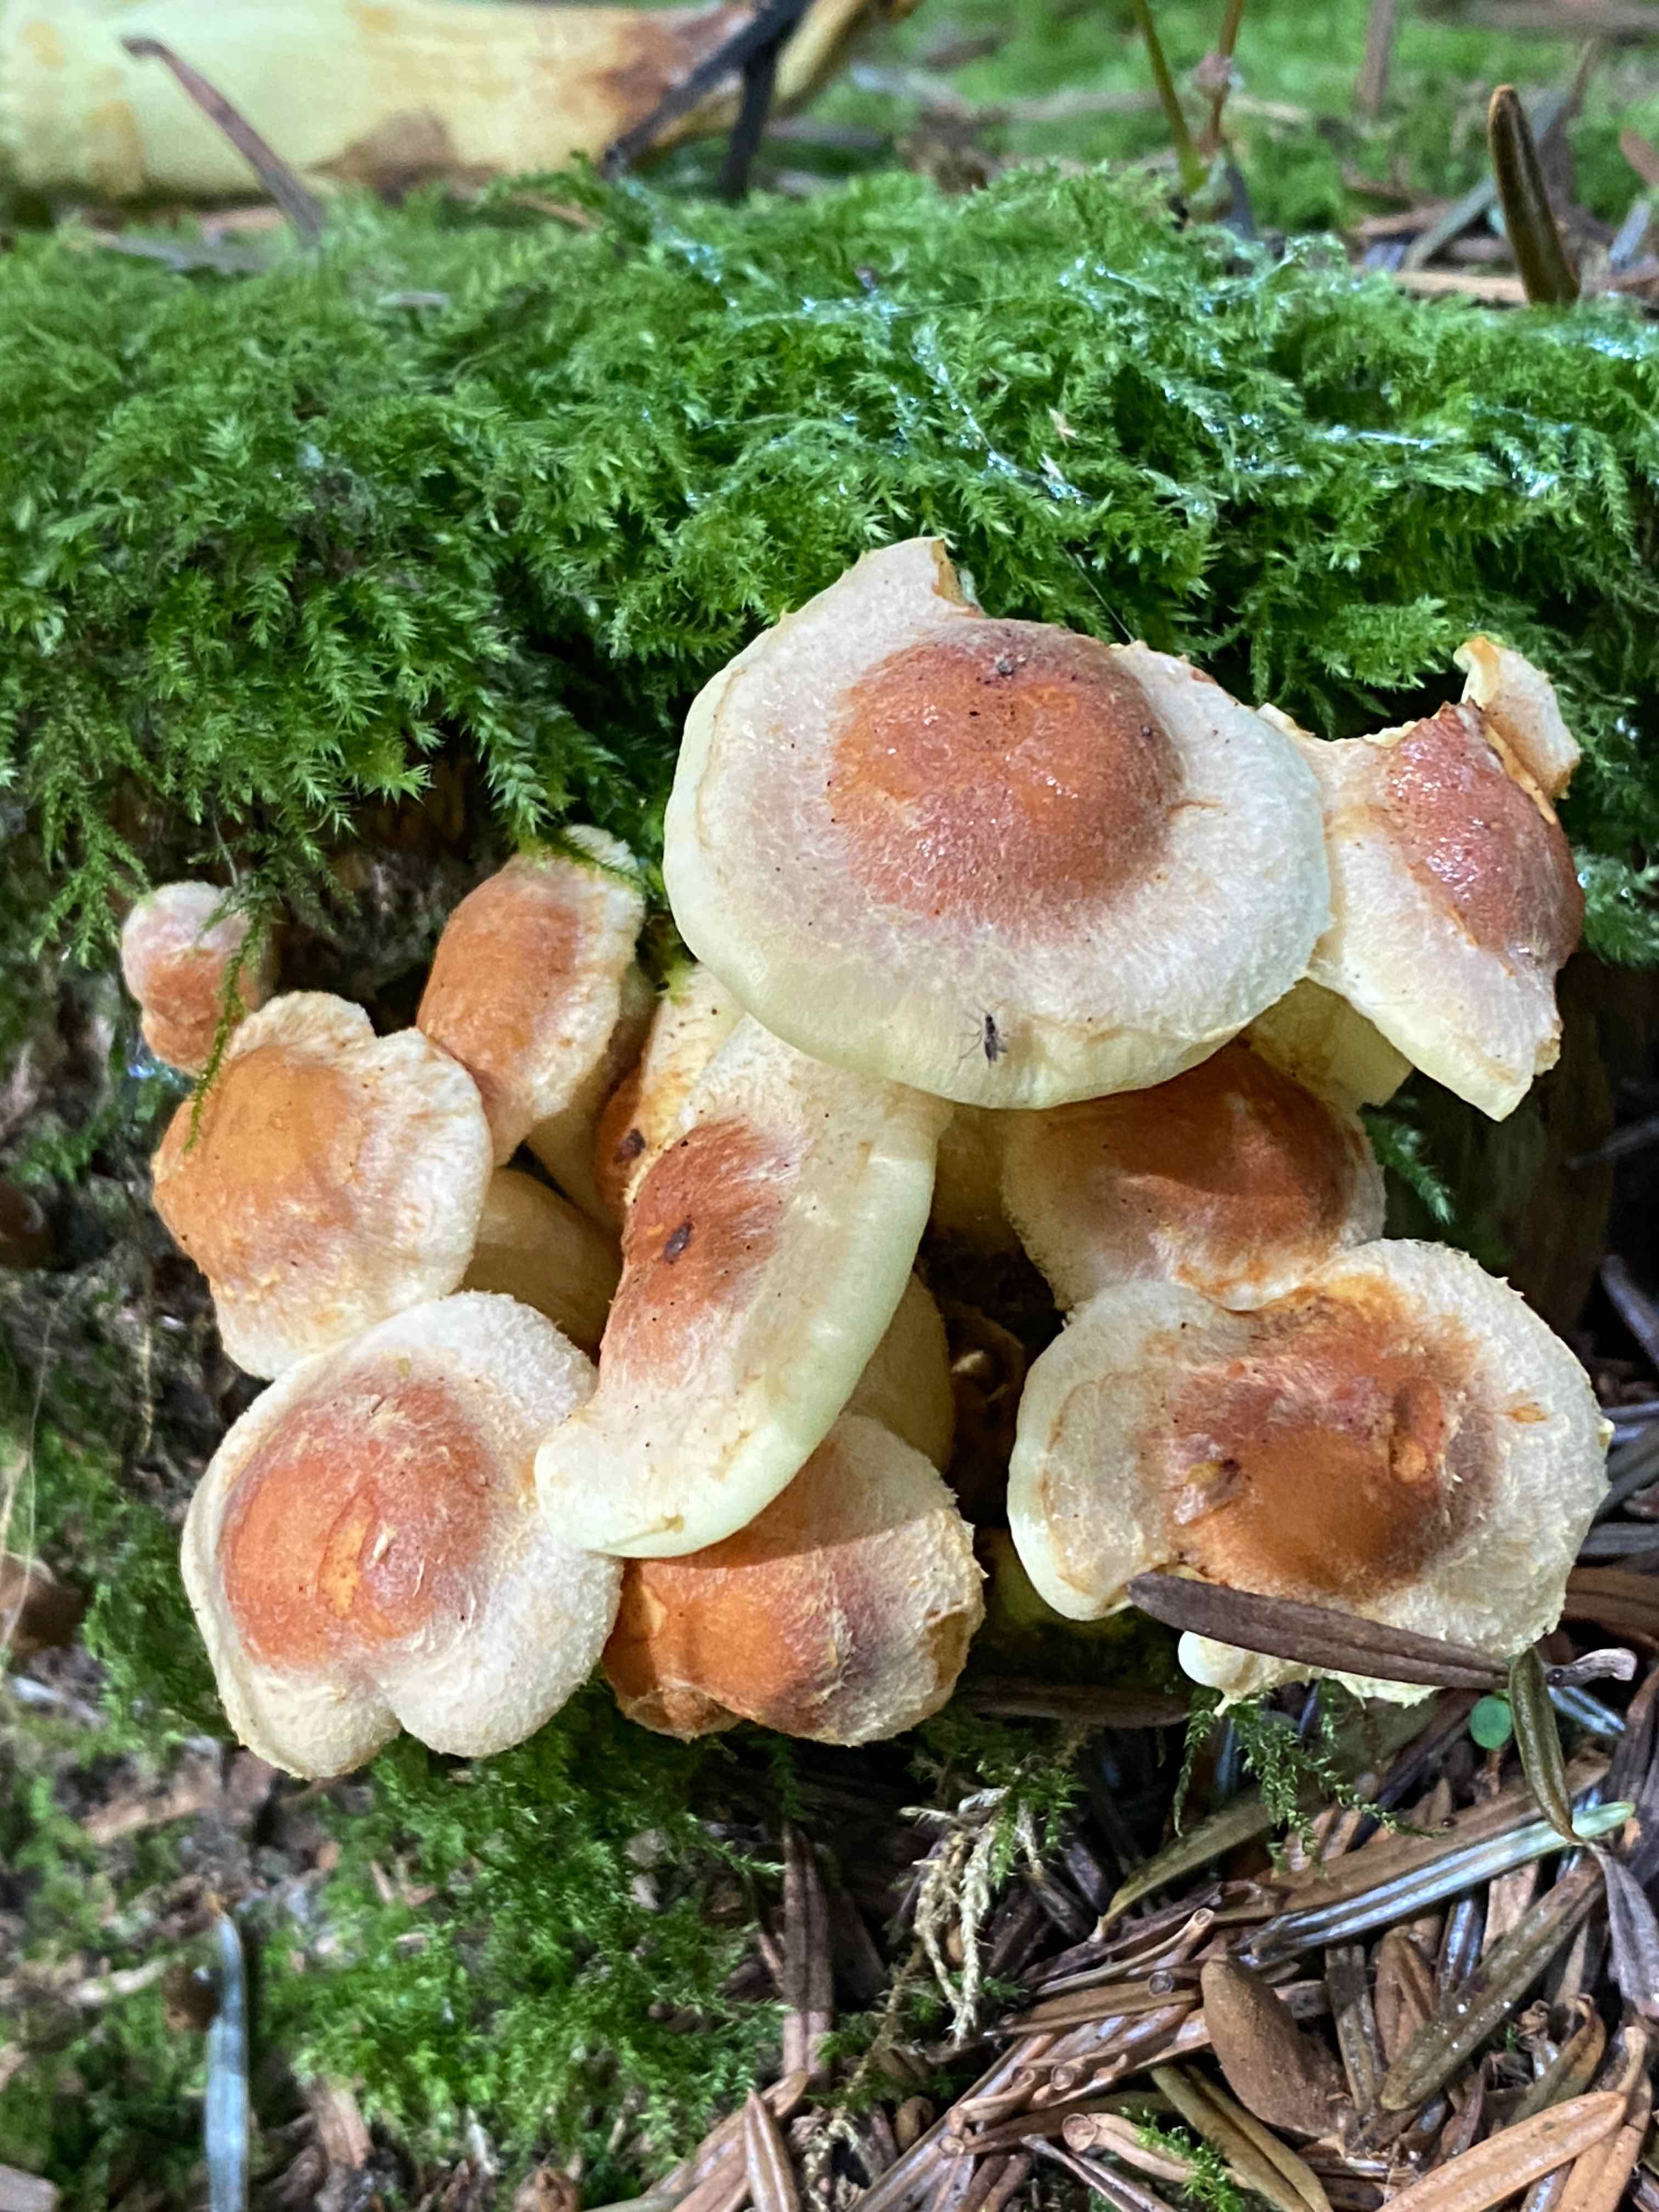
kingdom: Fungi
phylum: Basidiomycota
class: Agaricomycetes
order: Agaricales
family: Strophariaceae
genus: Hypholoma
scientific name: Hypholoma
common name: svovlhat
